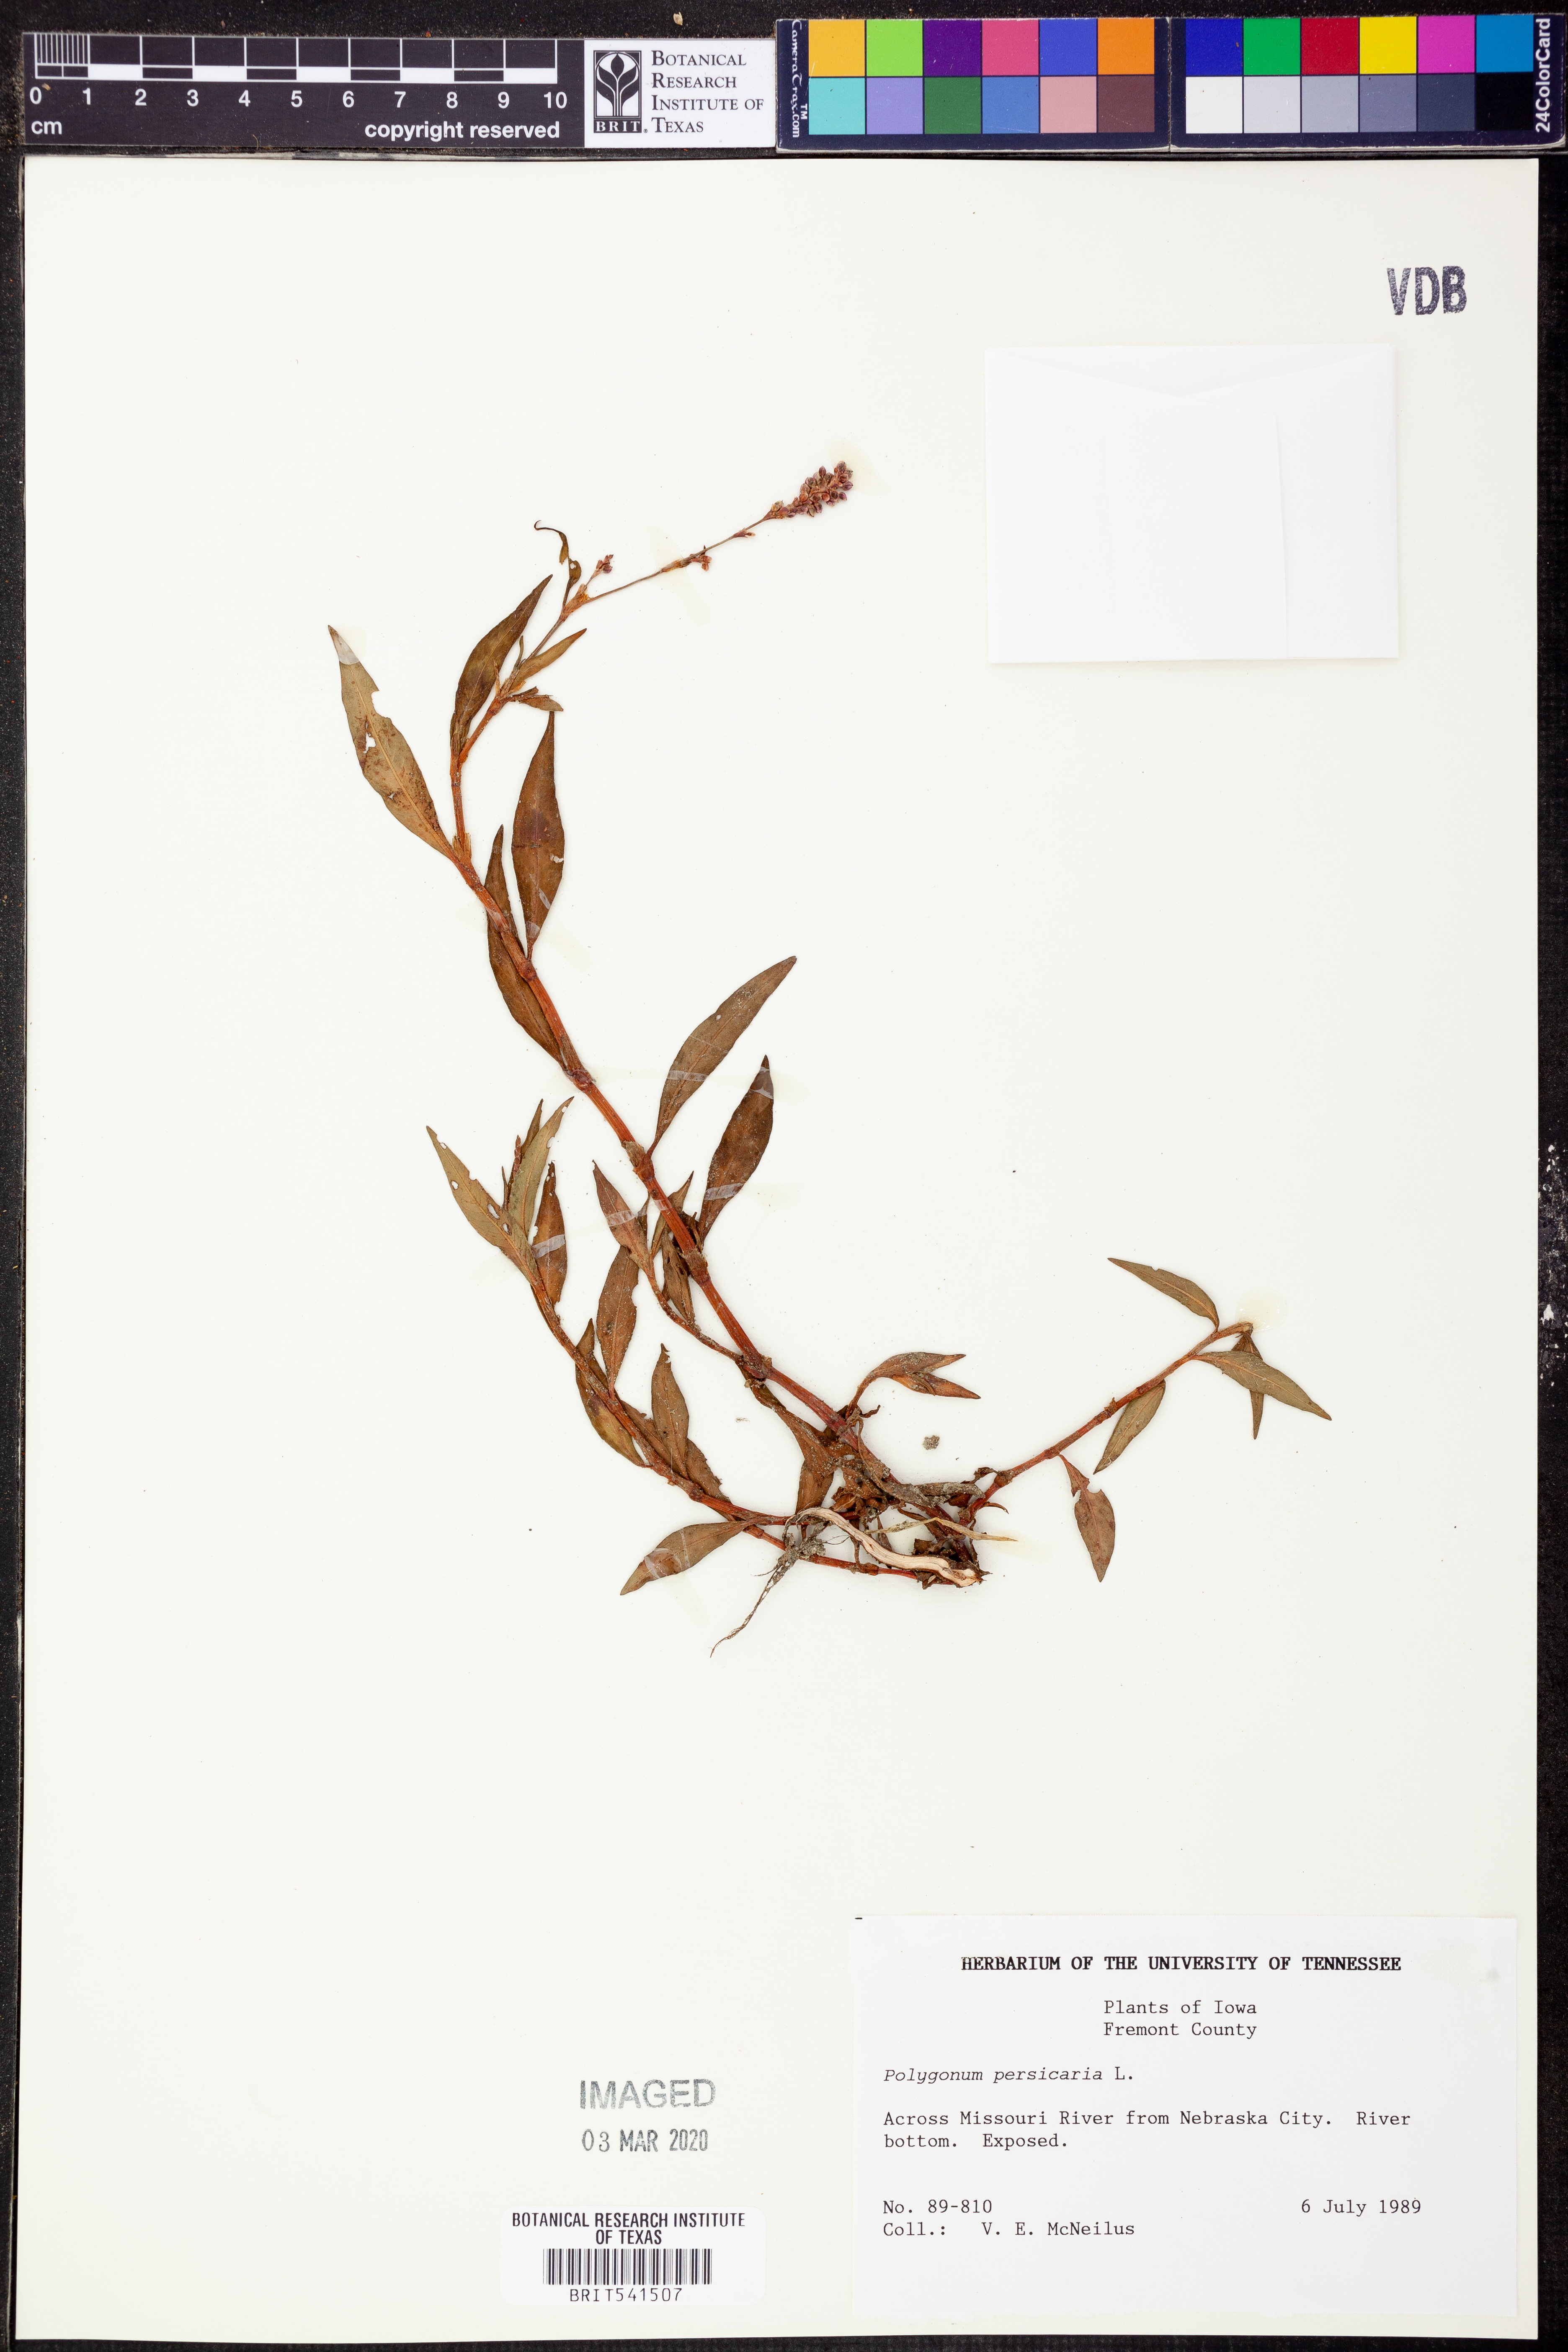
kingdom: Plantae
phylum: Tracheophyta
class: Magnoliopsida
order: Caryophyllales
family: Polygonaceae
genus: Persicaria
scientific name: Persicaria maculosa
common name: Redshank
